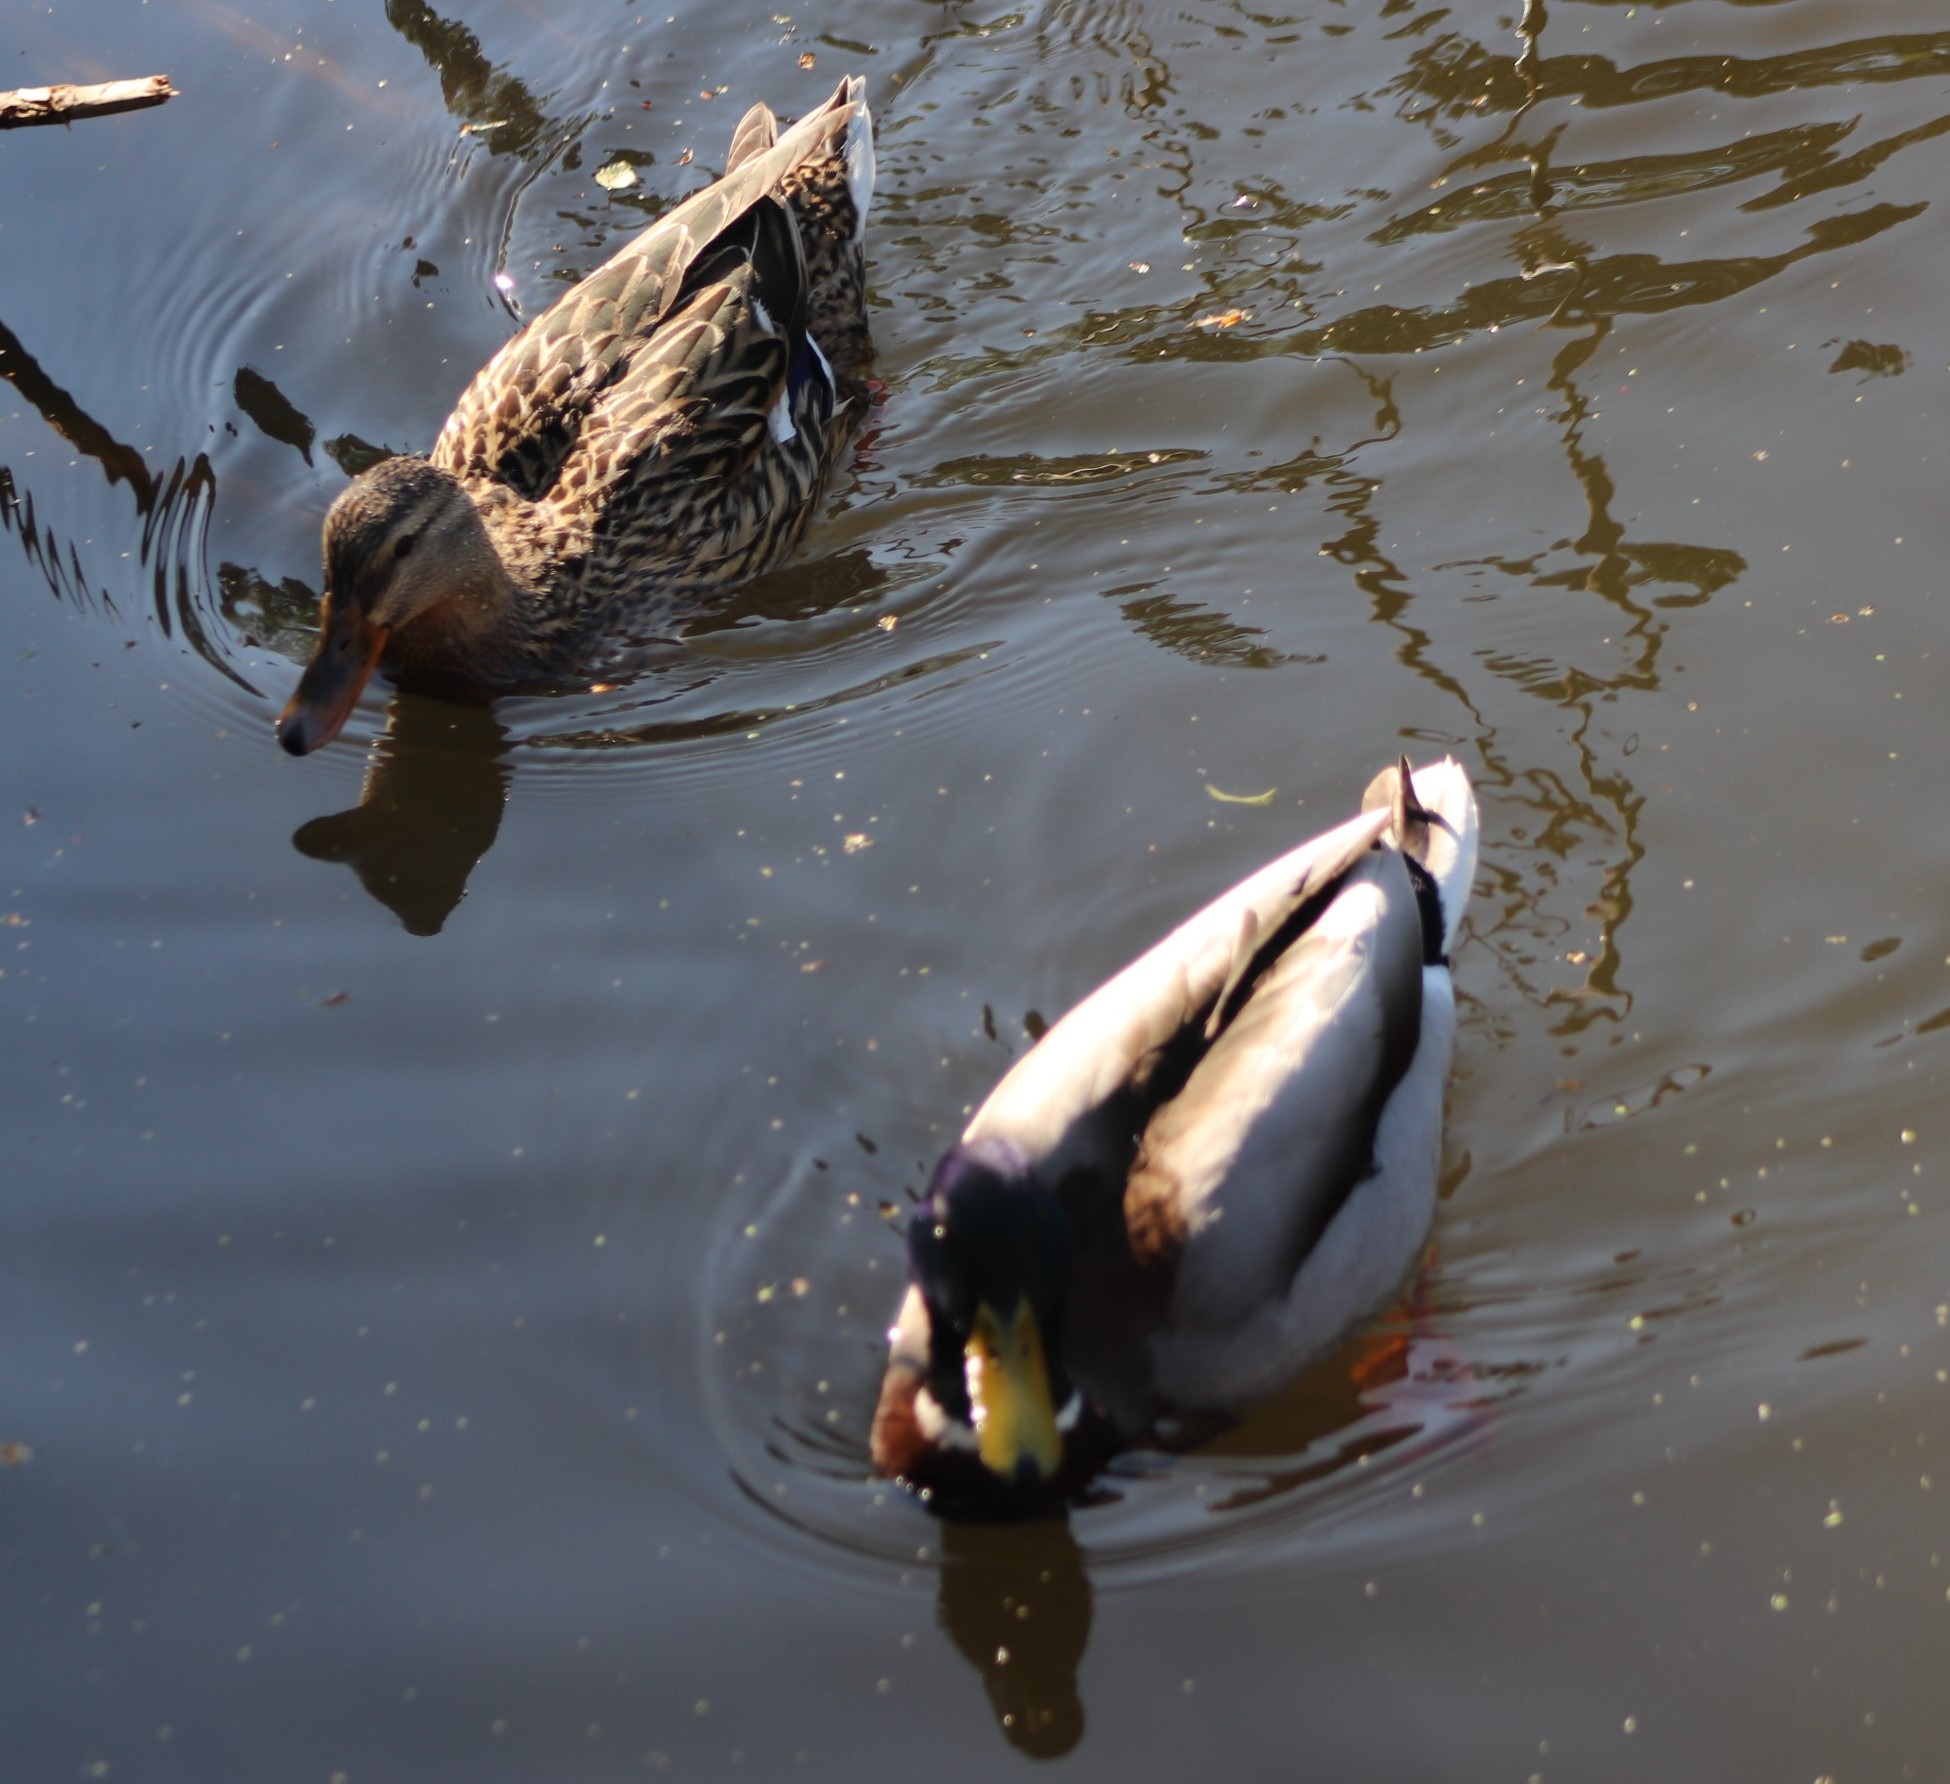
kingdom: Animalia
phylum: Chordata
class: Aves
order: Anseriformes
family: Anatidae
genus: Anas
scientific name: Anas platyrhynchos
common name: Gråand
